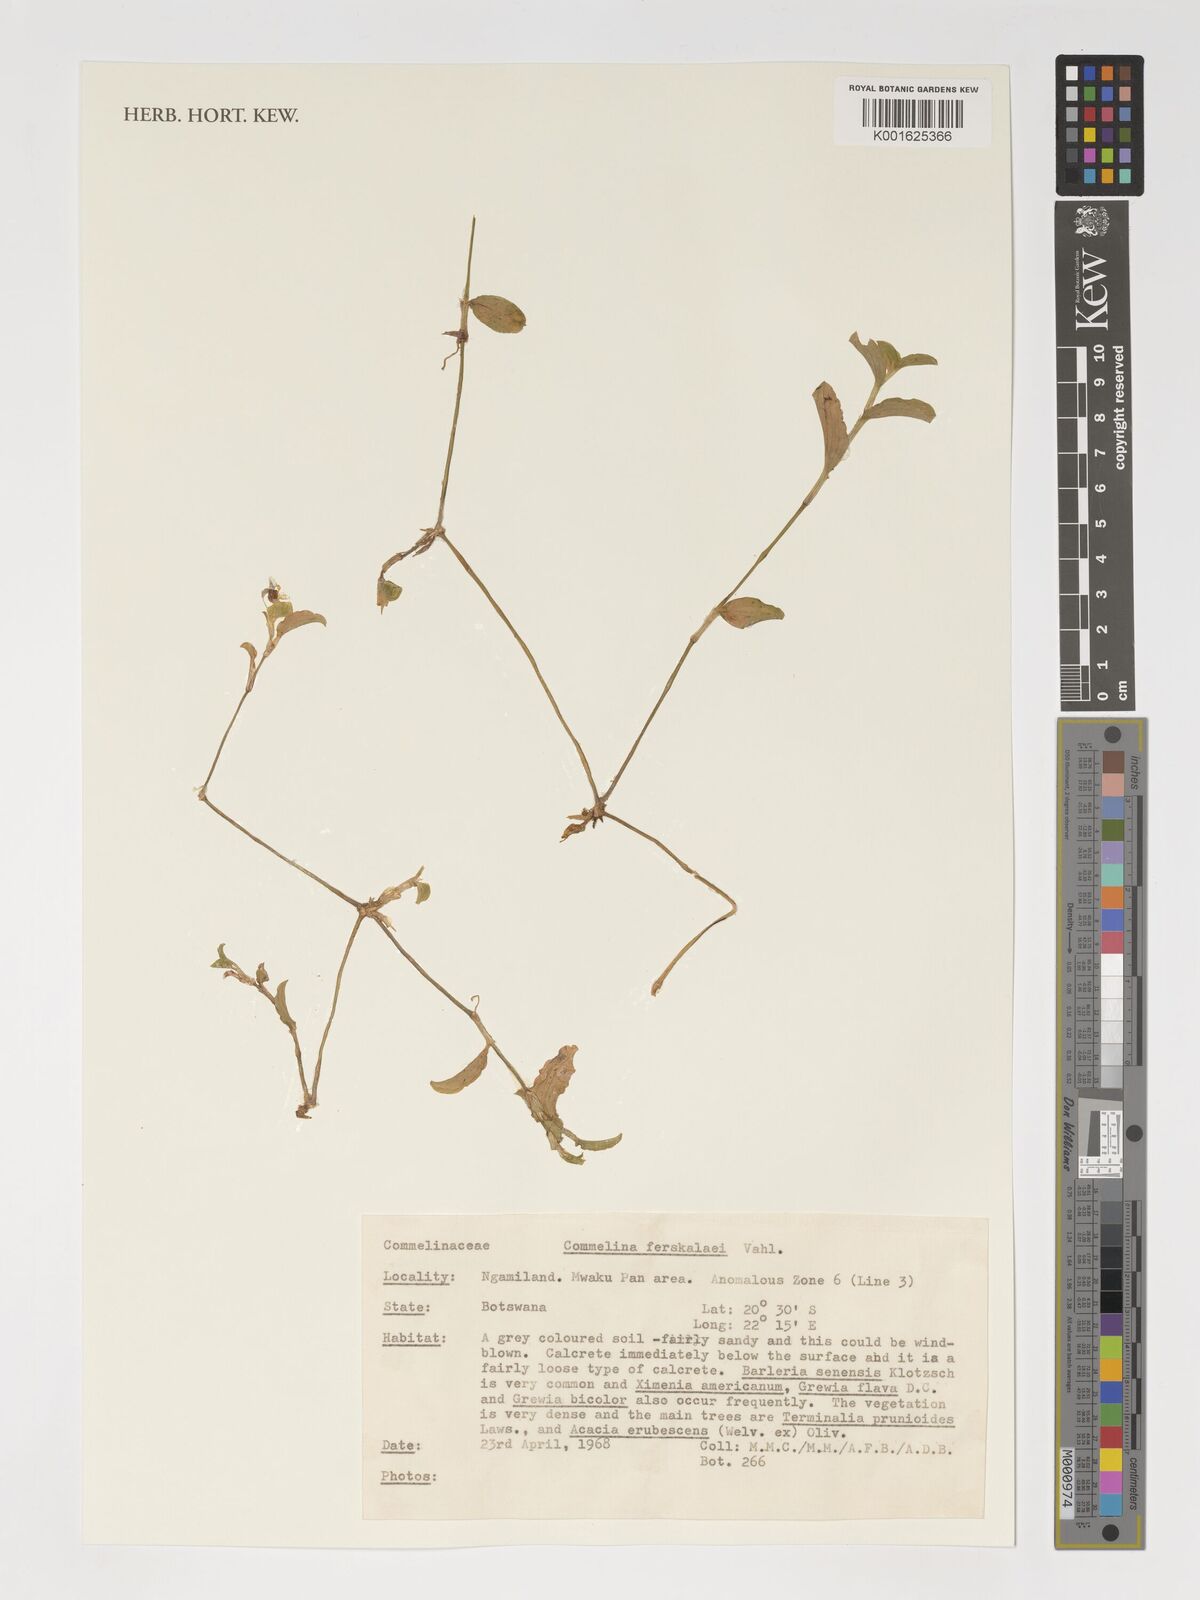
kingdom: Plantae
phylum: Tracheophyta
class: Liliopsida
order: Commelinales
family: Commelinaceae
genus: Commelina
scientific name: Commelina
